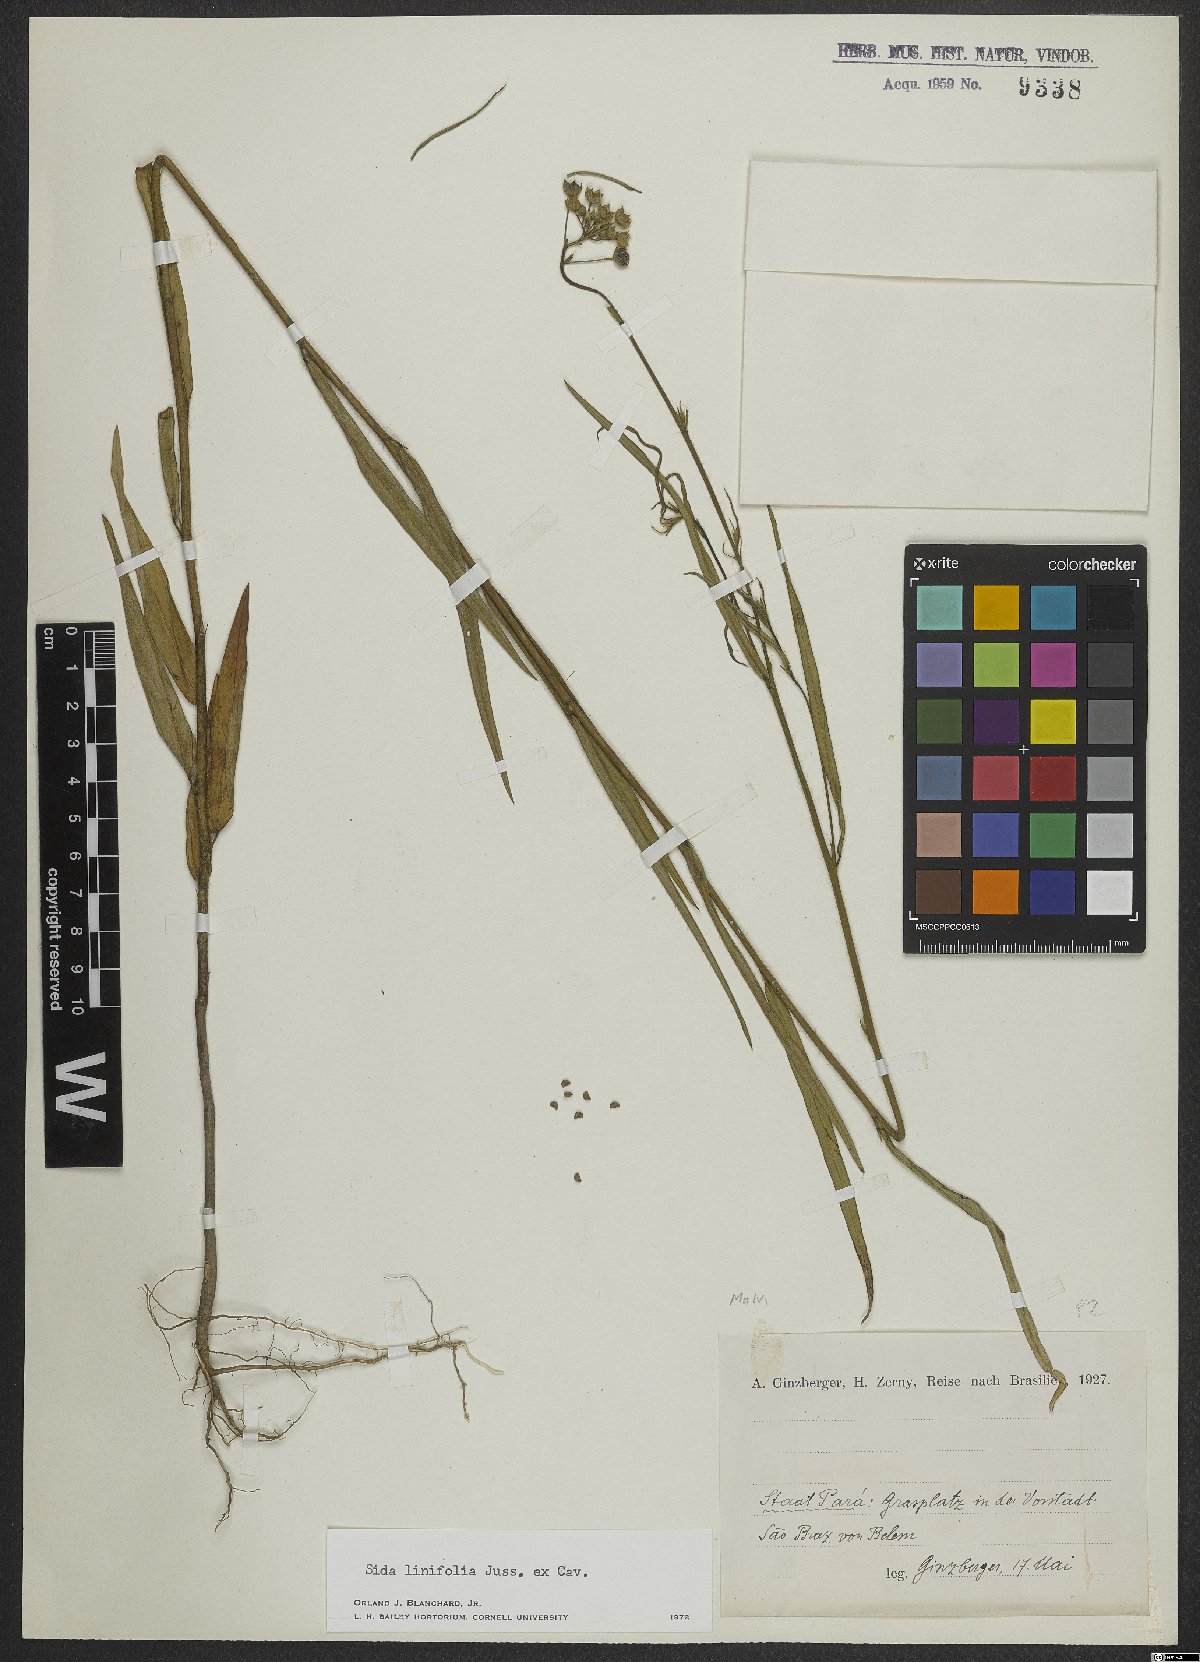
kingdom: Plantae
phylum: Tracheophyta
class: Magnoliopsida
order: Malvales
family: Malvaceae
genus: Sida
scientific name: Sida linifolia
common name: Flaxleaf fanpetals
